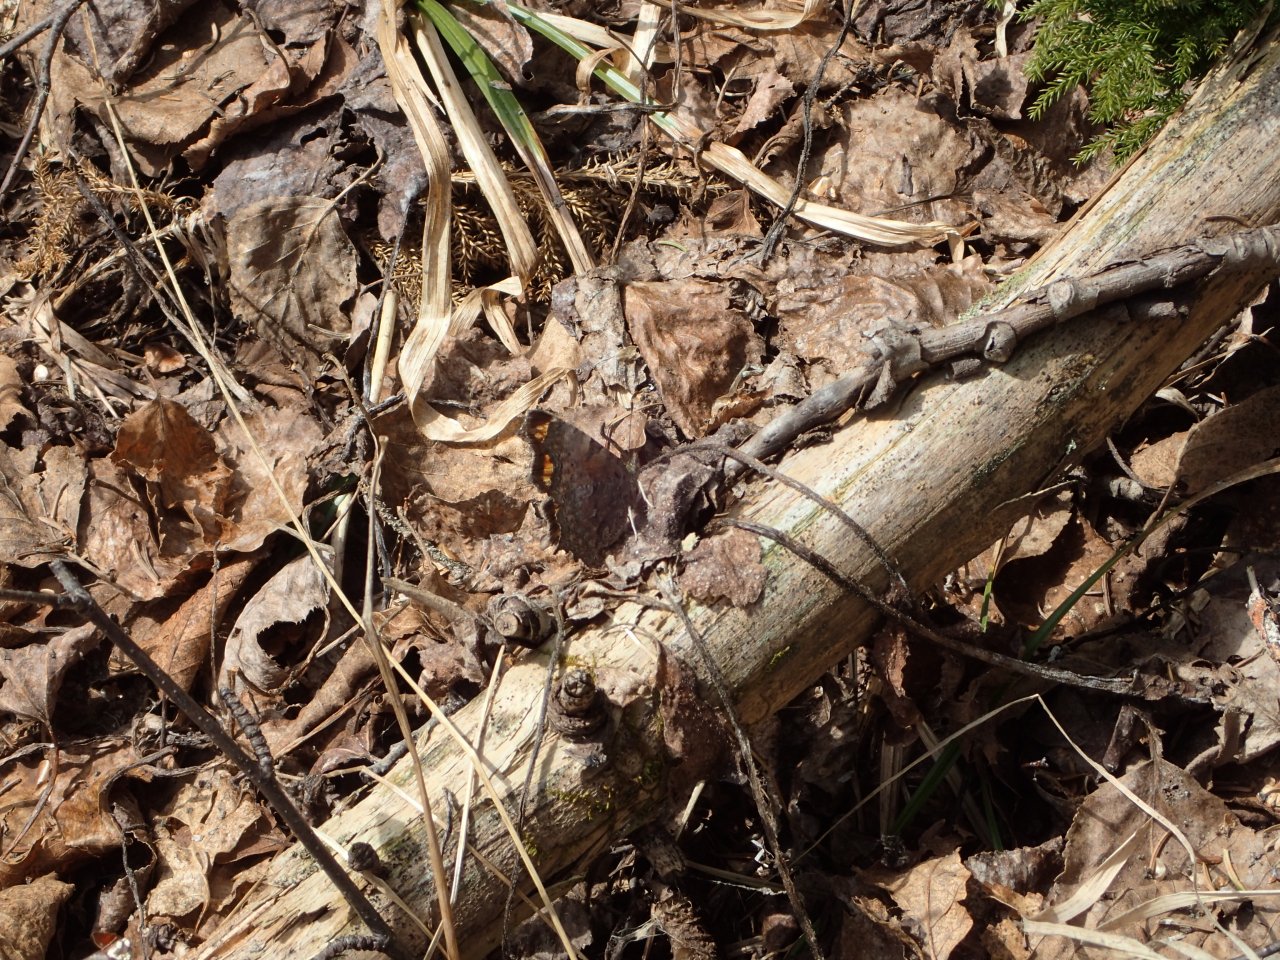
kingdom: Animalia
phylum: Arthropoda
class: Insecta
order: Lepidoptera
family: Nymphalidae
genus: Polygonia
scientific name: Polygonia faunus
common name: Green Comma
